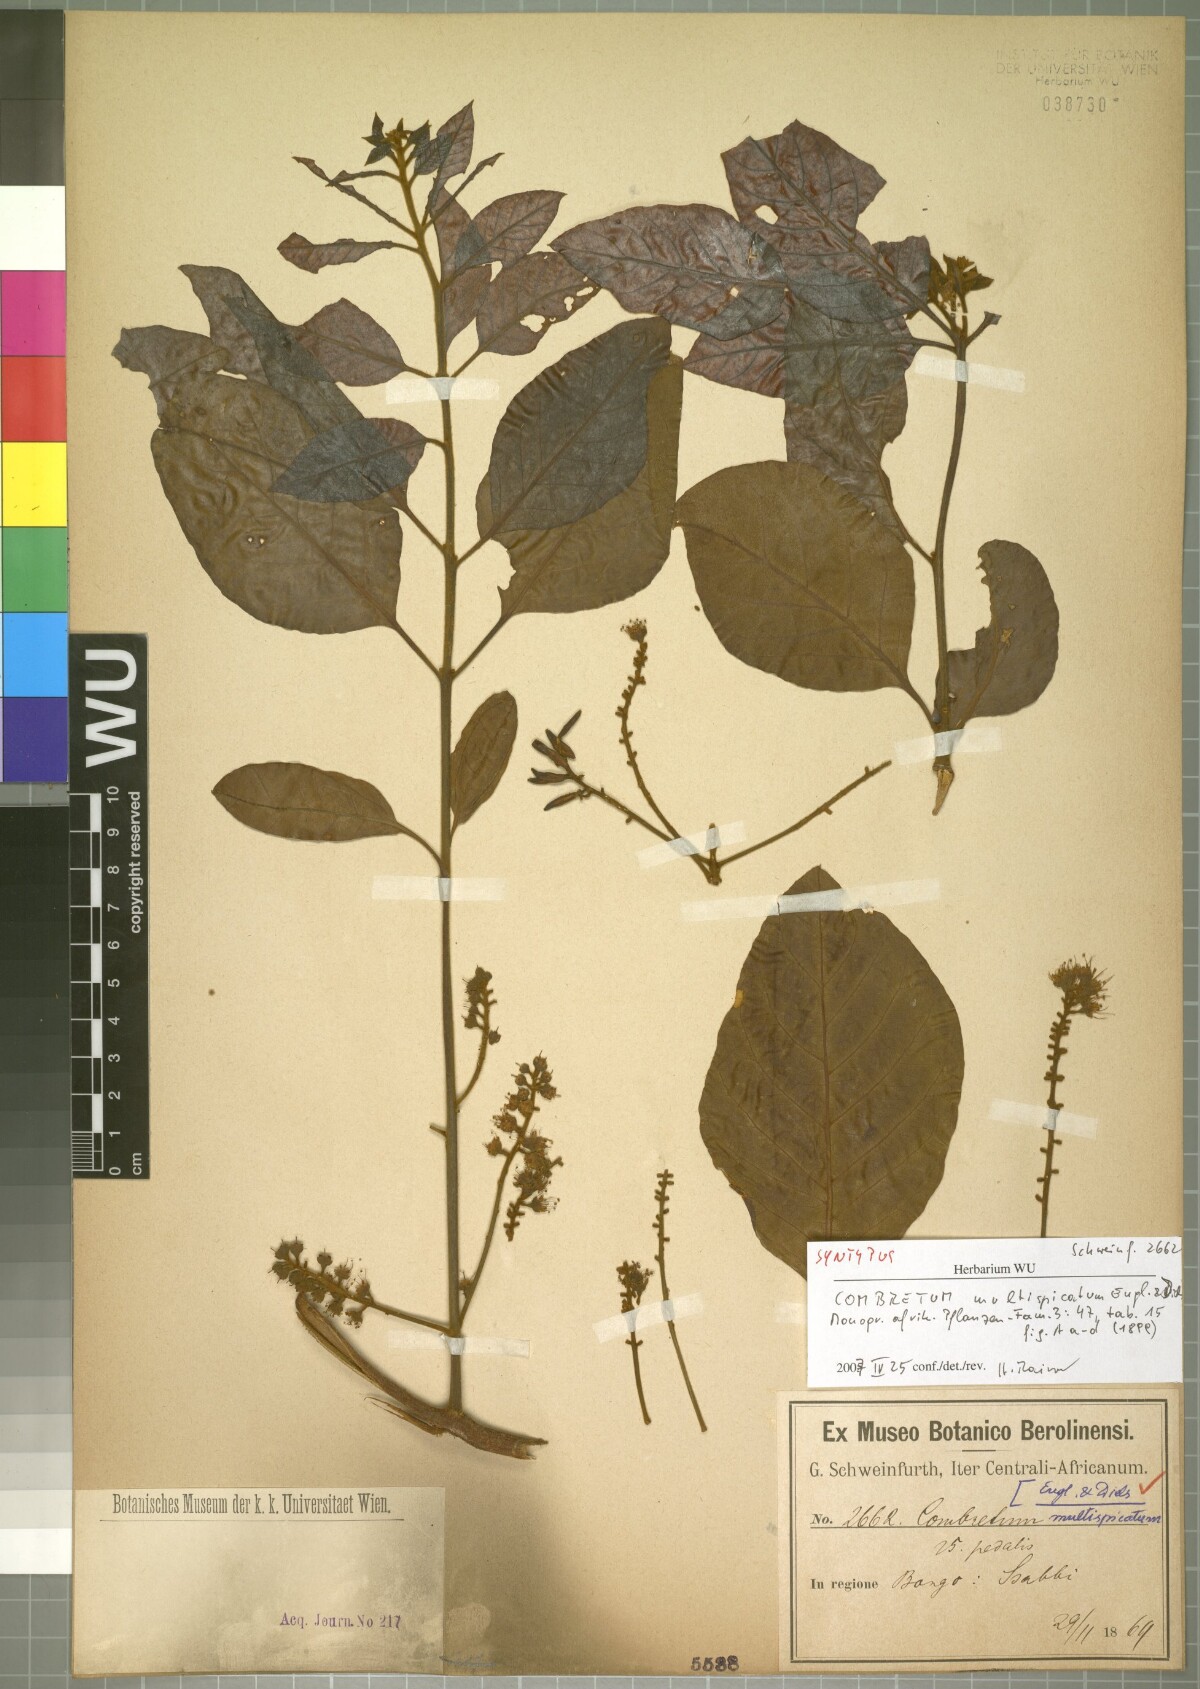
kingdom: Plantae
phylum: Tracheophyta
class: Magnoliopsida
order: Myrtales
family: Combretaceae
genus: Combretum
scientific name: Combretum adenogonium
